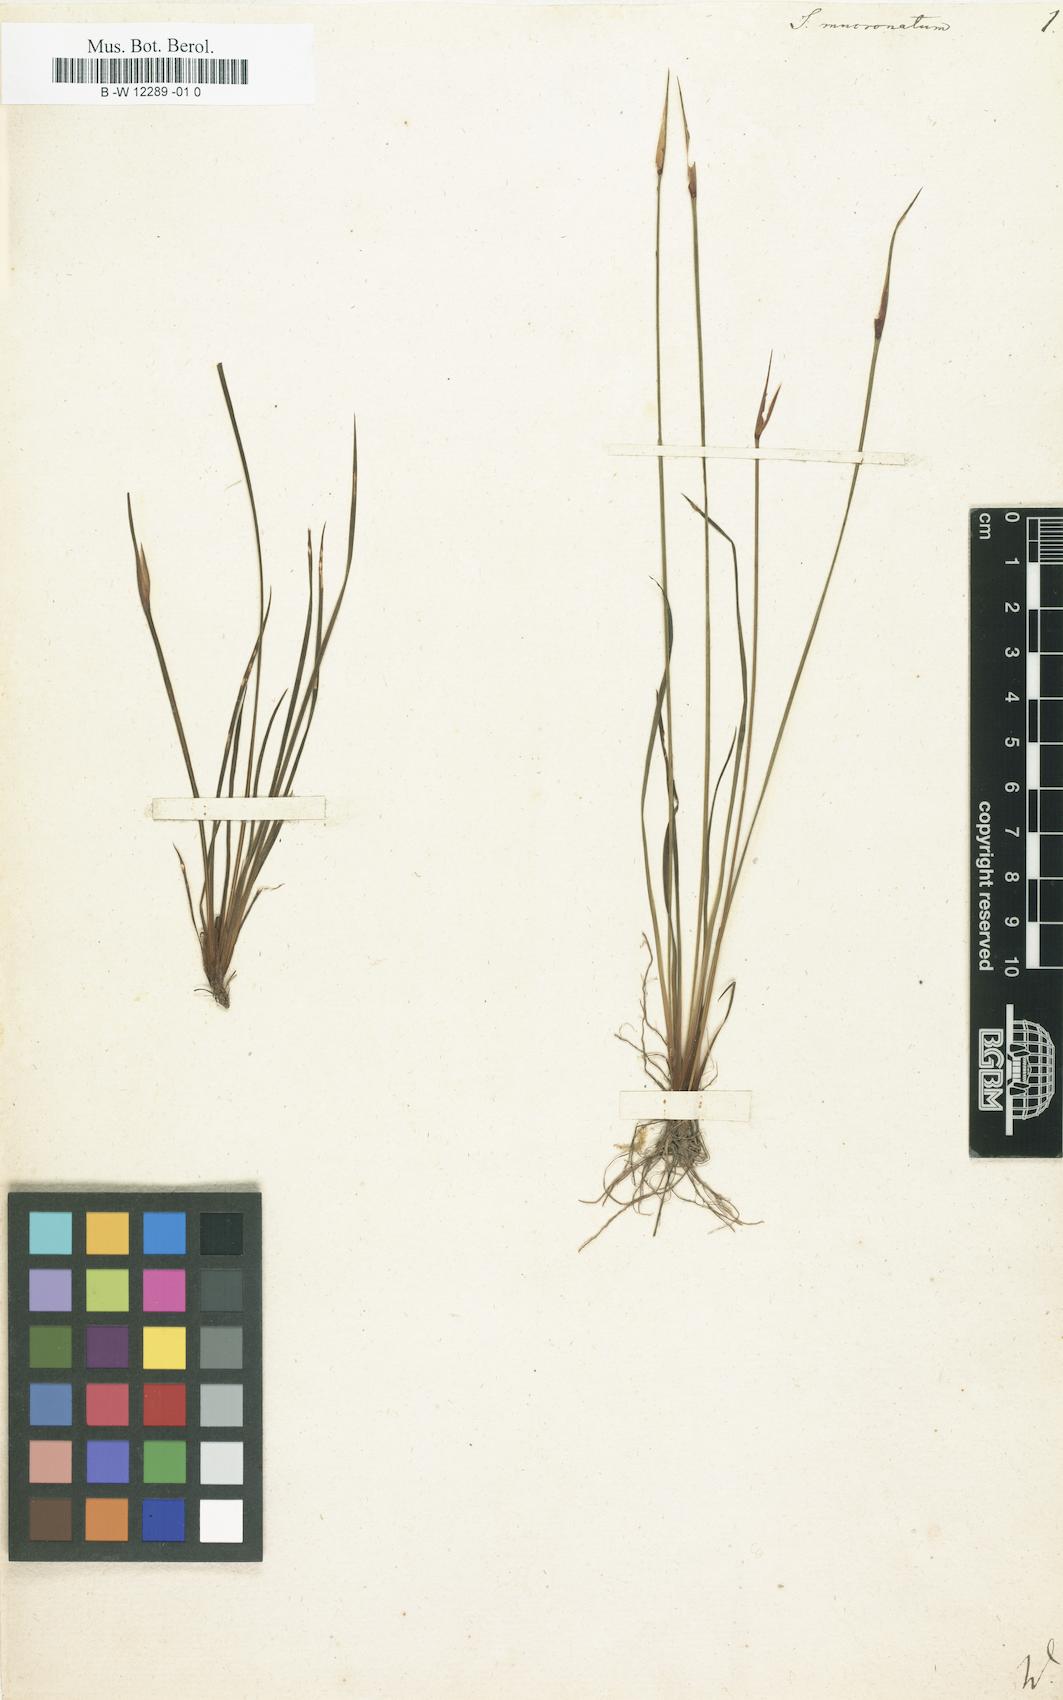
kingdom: Plantae
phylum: Tracheophyta
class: Liliopsida
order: Asparagales
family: Iridaceae
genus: Sisyrinchium
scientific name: Sisyrinchium mucronatum
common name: Eastern blue-eyed-grass
